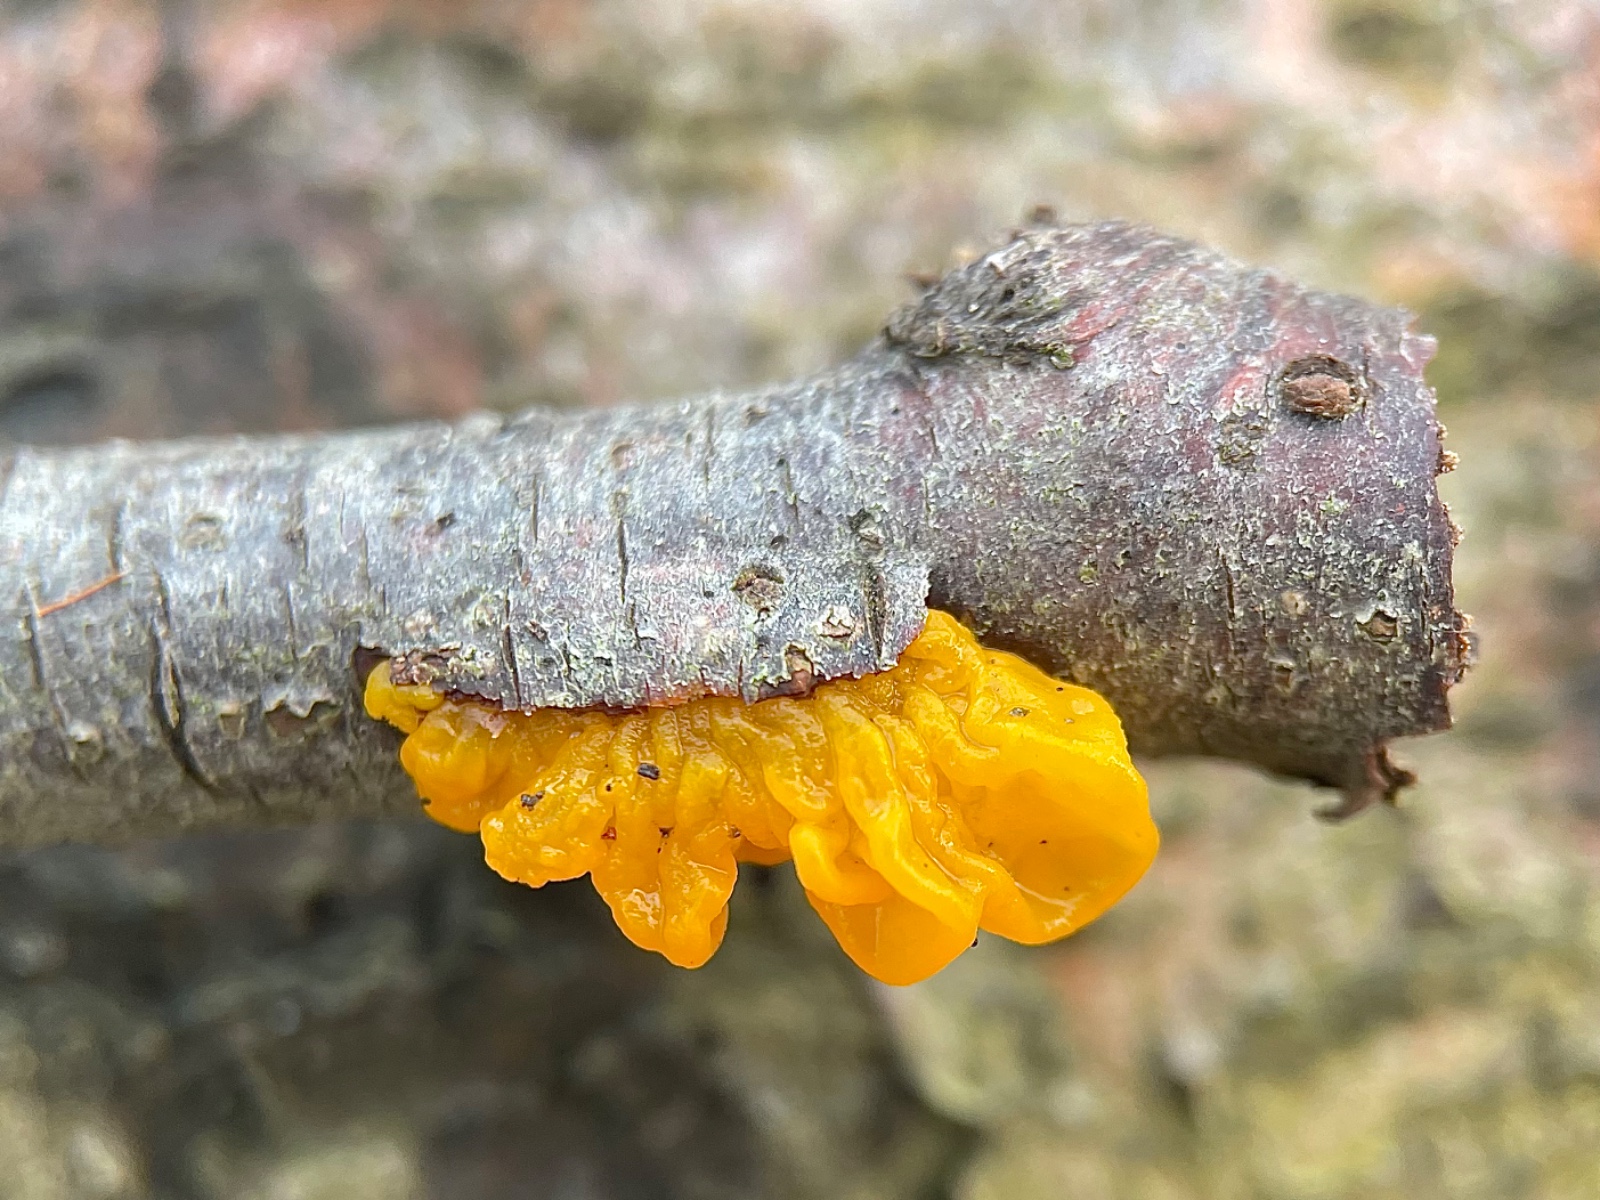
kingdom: Fungi
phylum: Basidiomycota
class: Tremellomycetes
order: Tremellales
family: Tremellaceae
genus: Tremella
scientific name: Tremella mesenterica
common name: gul bævresvamp
